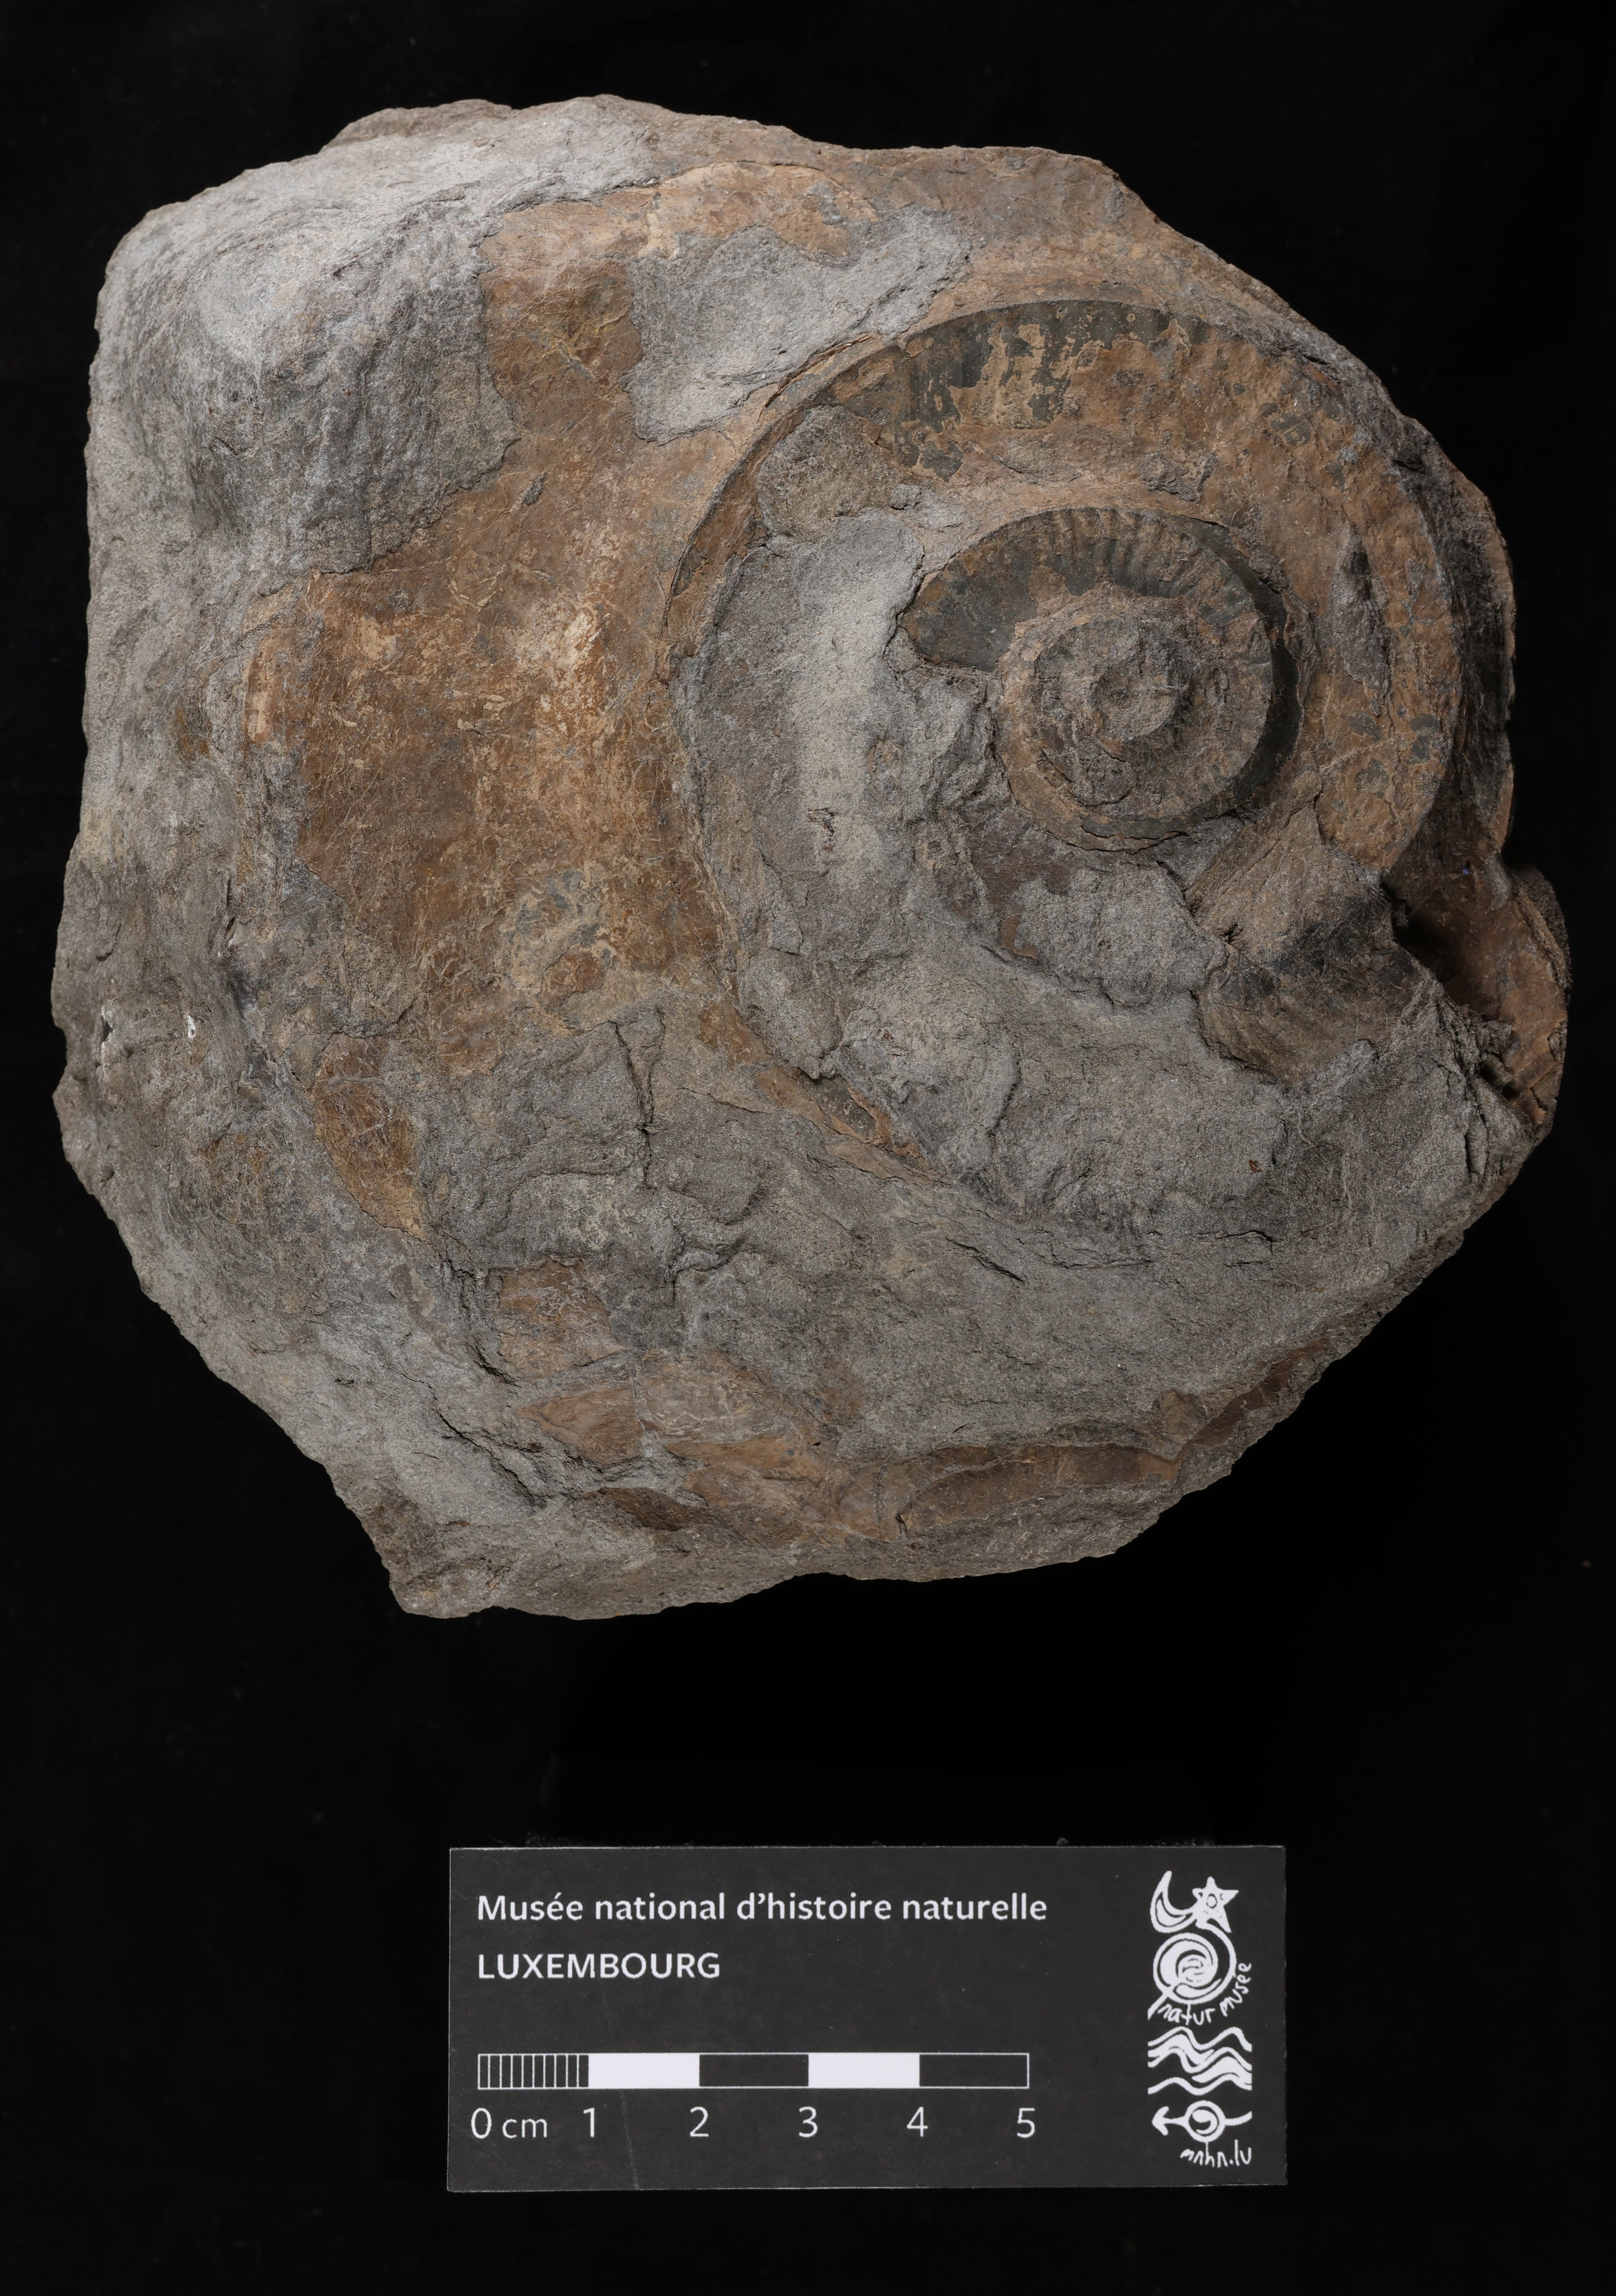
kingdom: Animalia
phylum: Mollusca
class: Cephalopoda
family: Hildoceratidae
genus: Hildaites
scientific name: Hildaites murleyi
